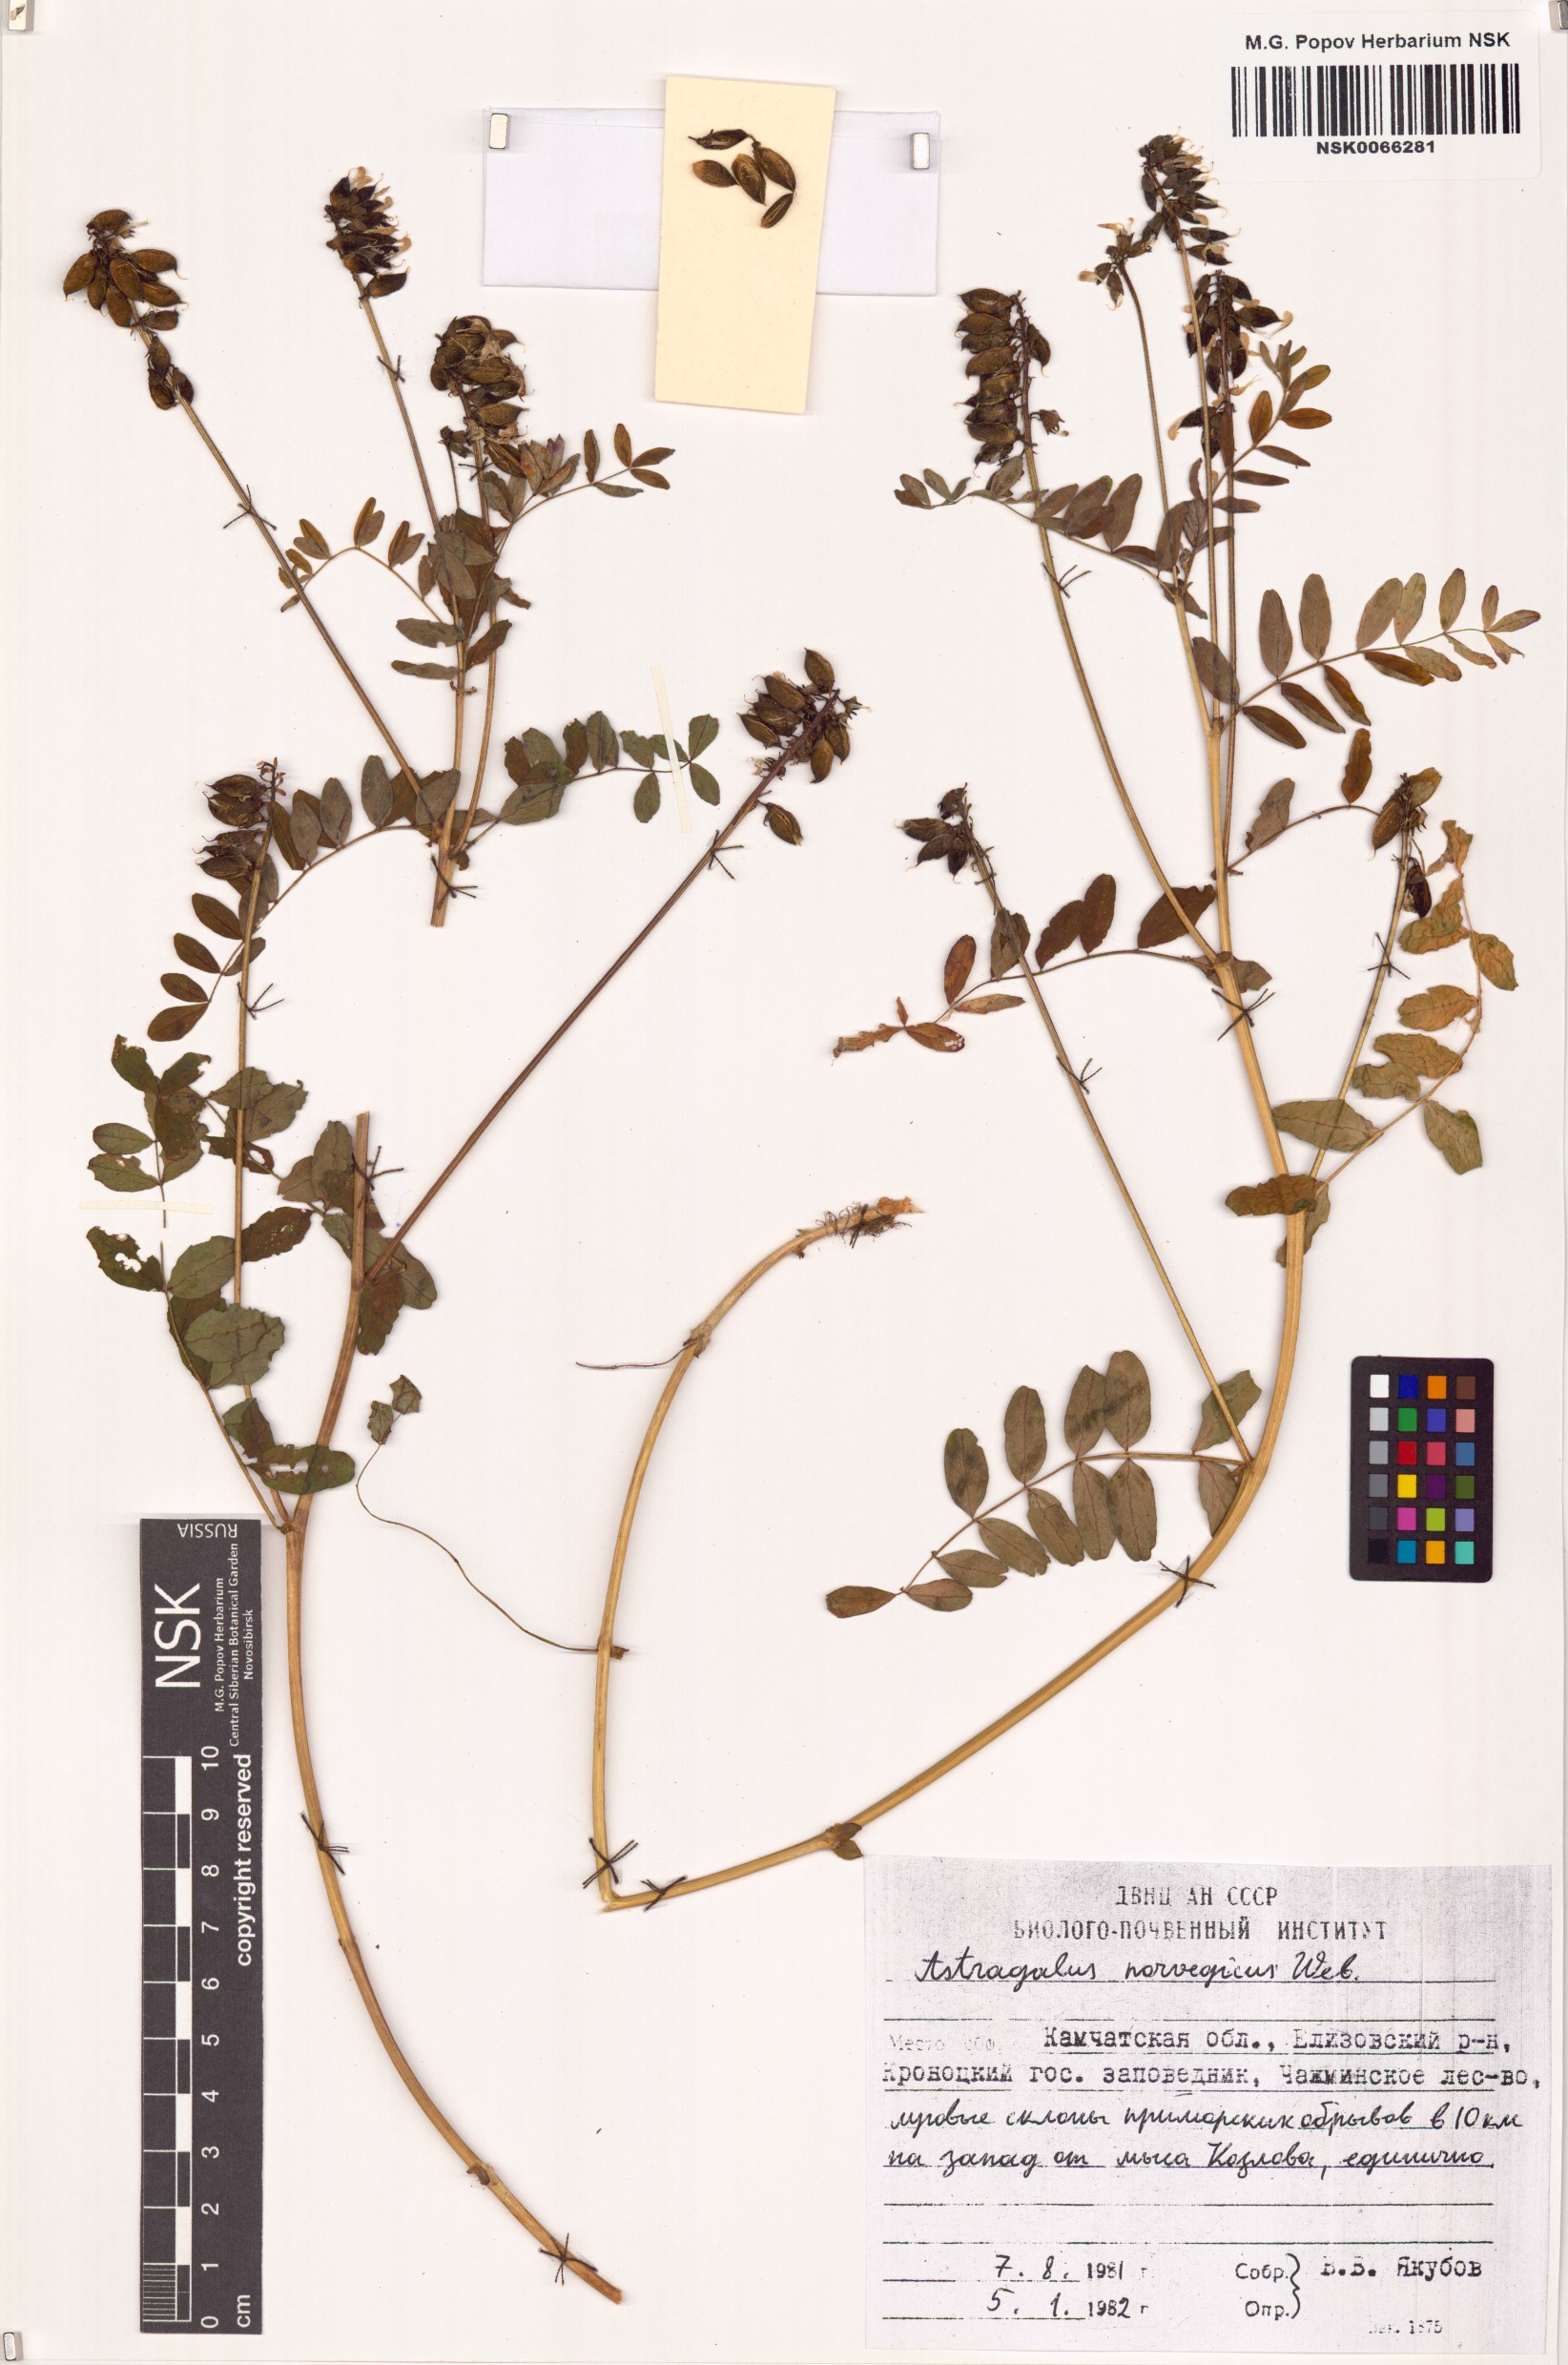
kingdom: Plantae
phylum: Tracheophyta
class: Magnoliopsida
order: Fabales
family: Fabaceae
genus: Astragalus
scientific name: Astragalus norvegicus
